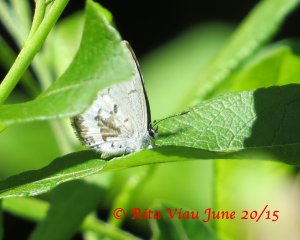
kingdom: Animalia
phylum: Arthropoda
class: Insecta
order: Lepidoptera
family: Lycaenidae
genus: Celastrina
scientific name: Celastrina lucia
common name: Northern Spring Azure
